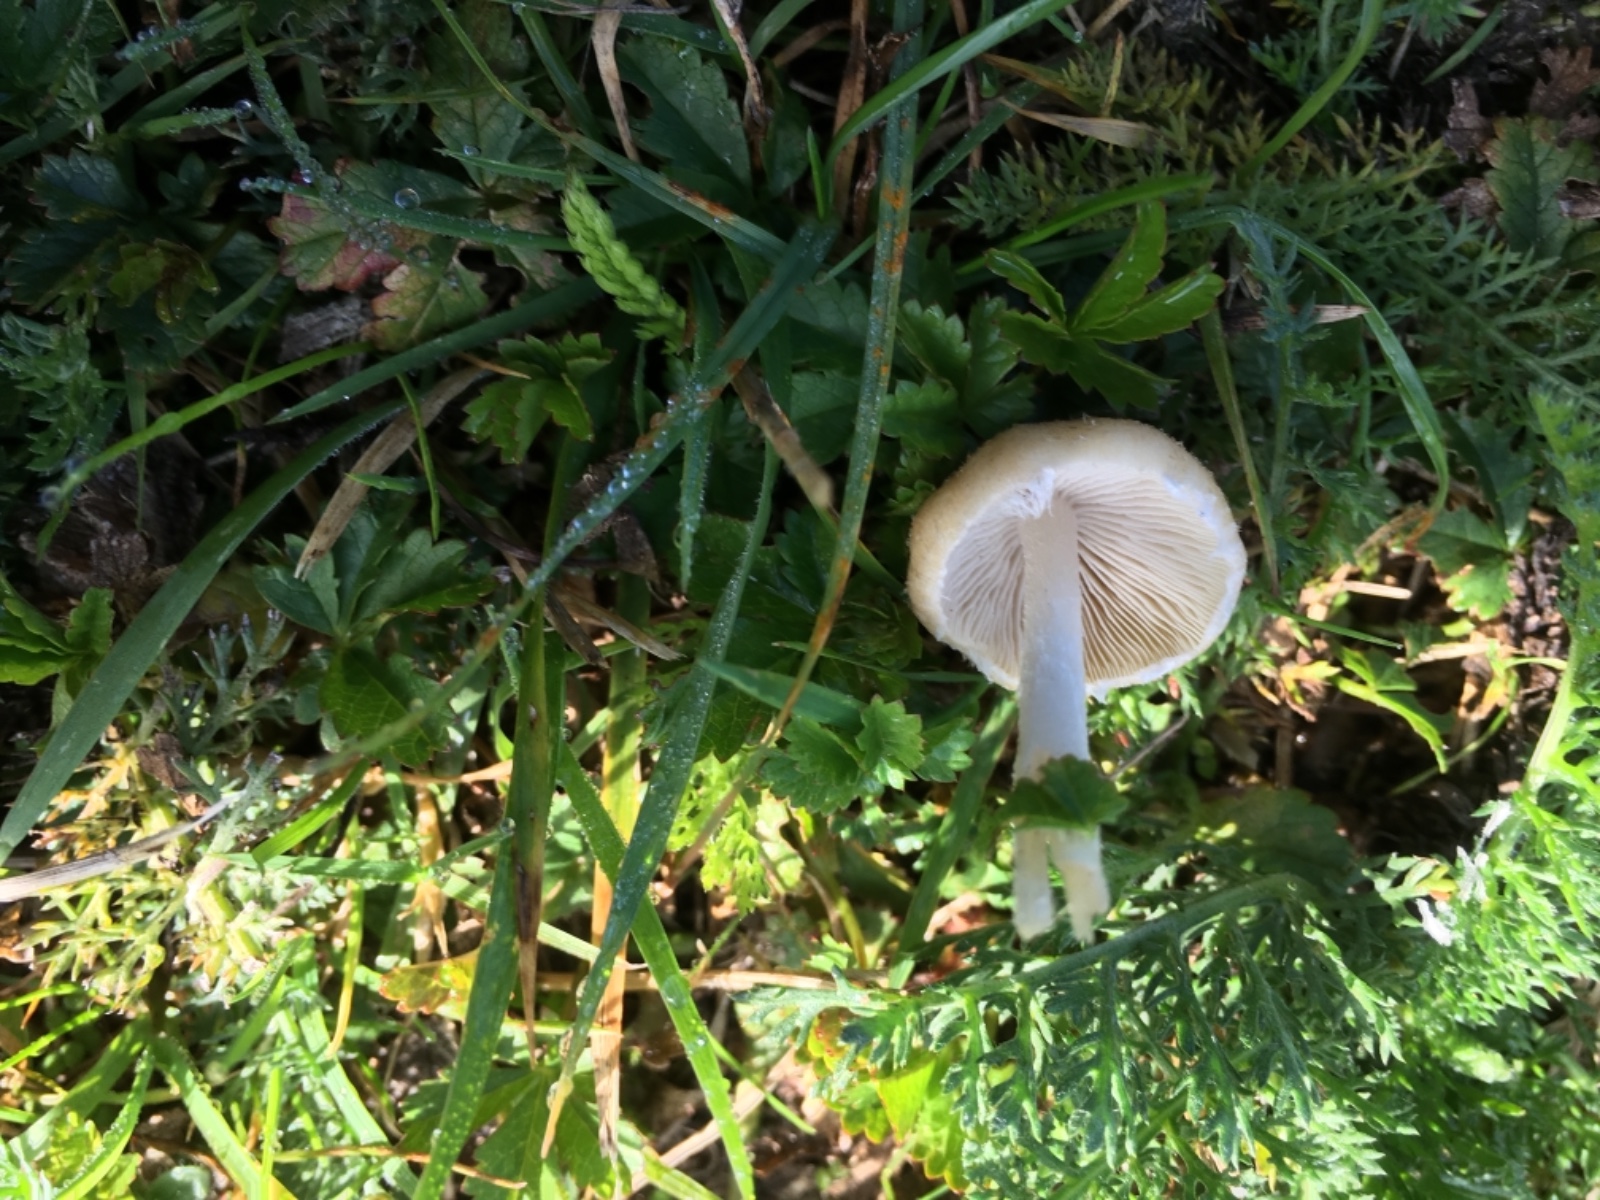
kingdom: Fungi
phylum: Basidiomycota
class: Agaricomycetes
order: Agaricales
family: Psathyrellaceae
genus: Candolleomyces
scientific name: Candolleomyces candolleanus
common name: Candolles mørkhat
